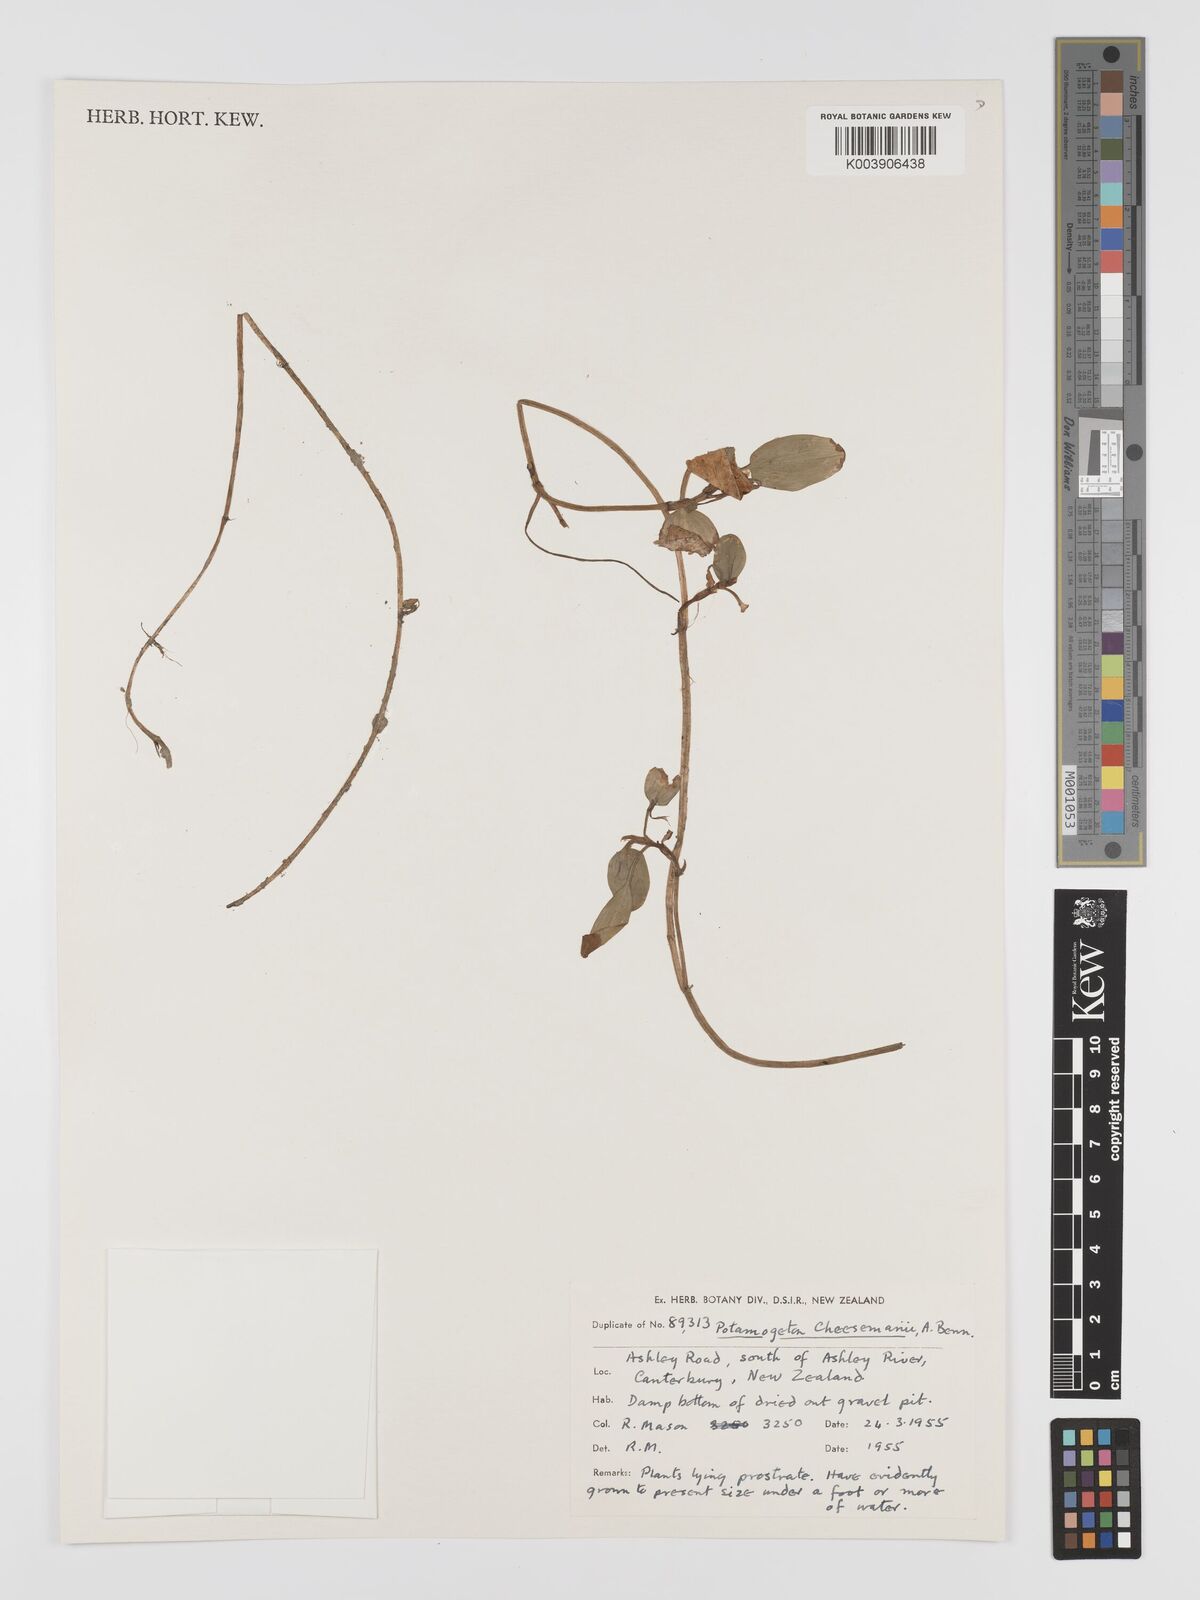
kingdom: Plantae
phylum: Tracheophyta
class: Liliopsida
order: Alismatales
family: Potamogetonaceae
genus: Potamogeton
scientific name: Potamogeton cheesemanii
